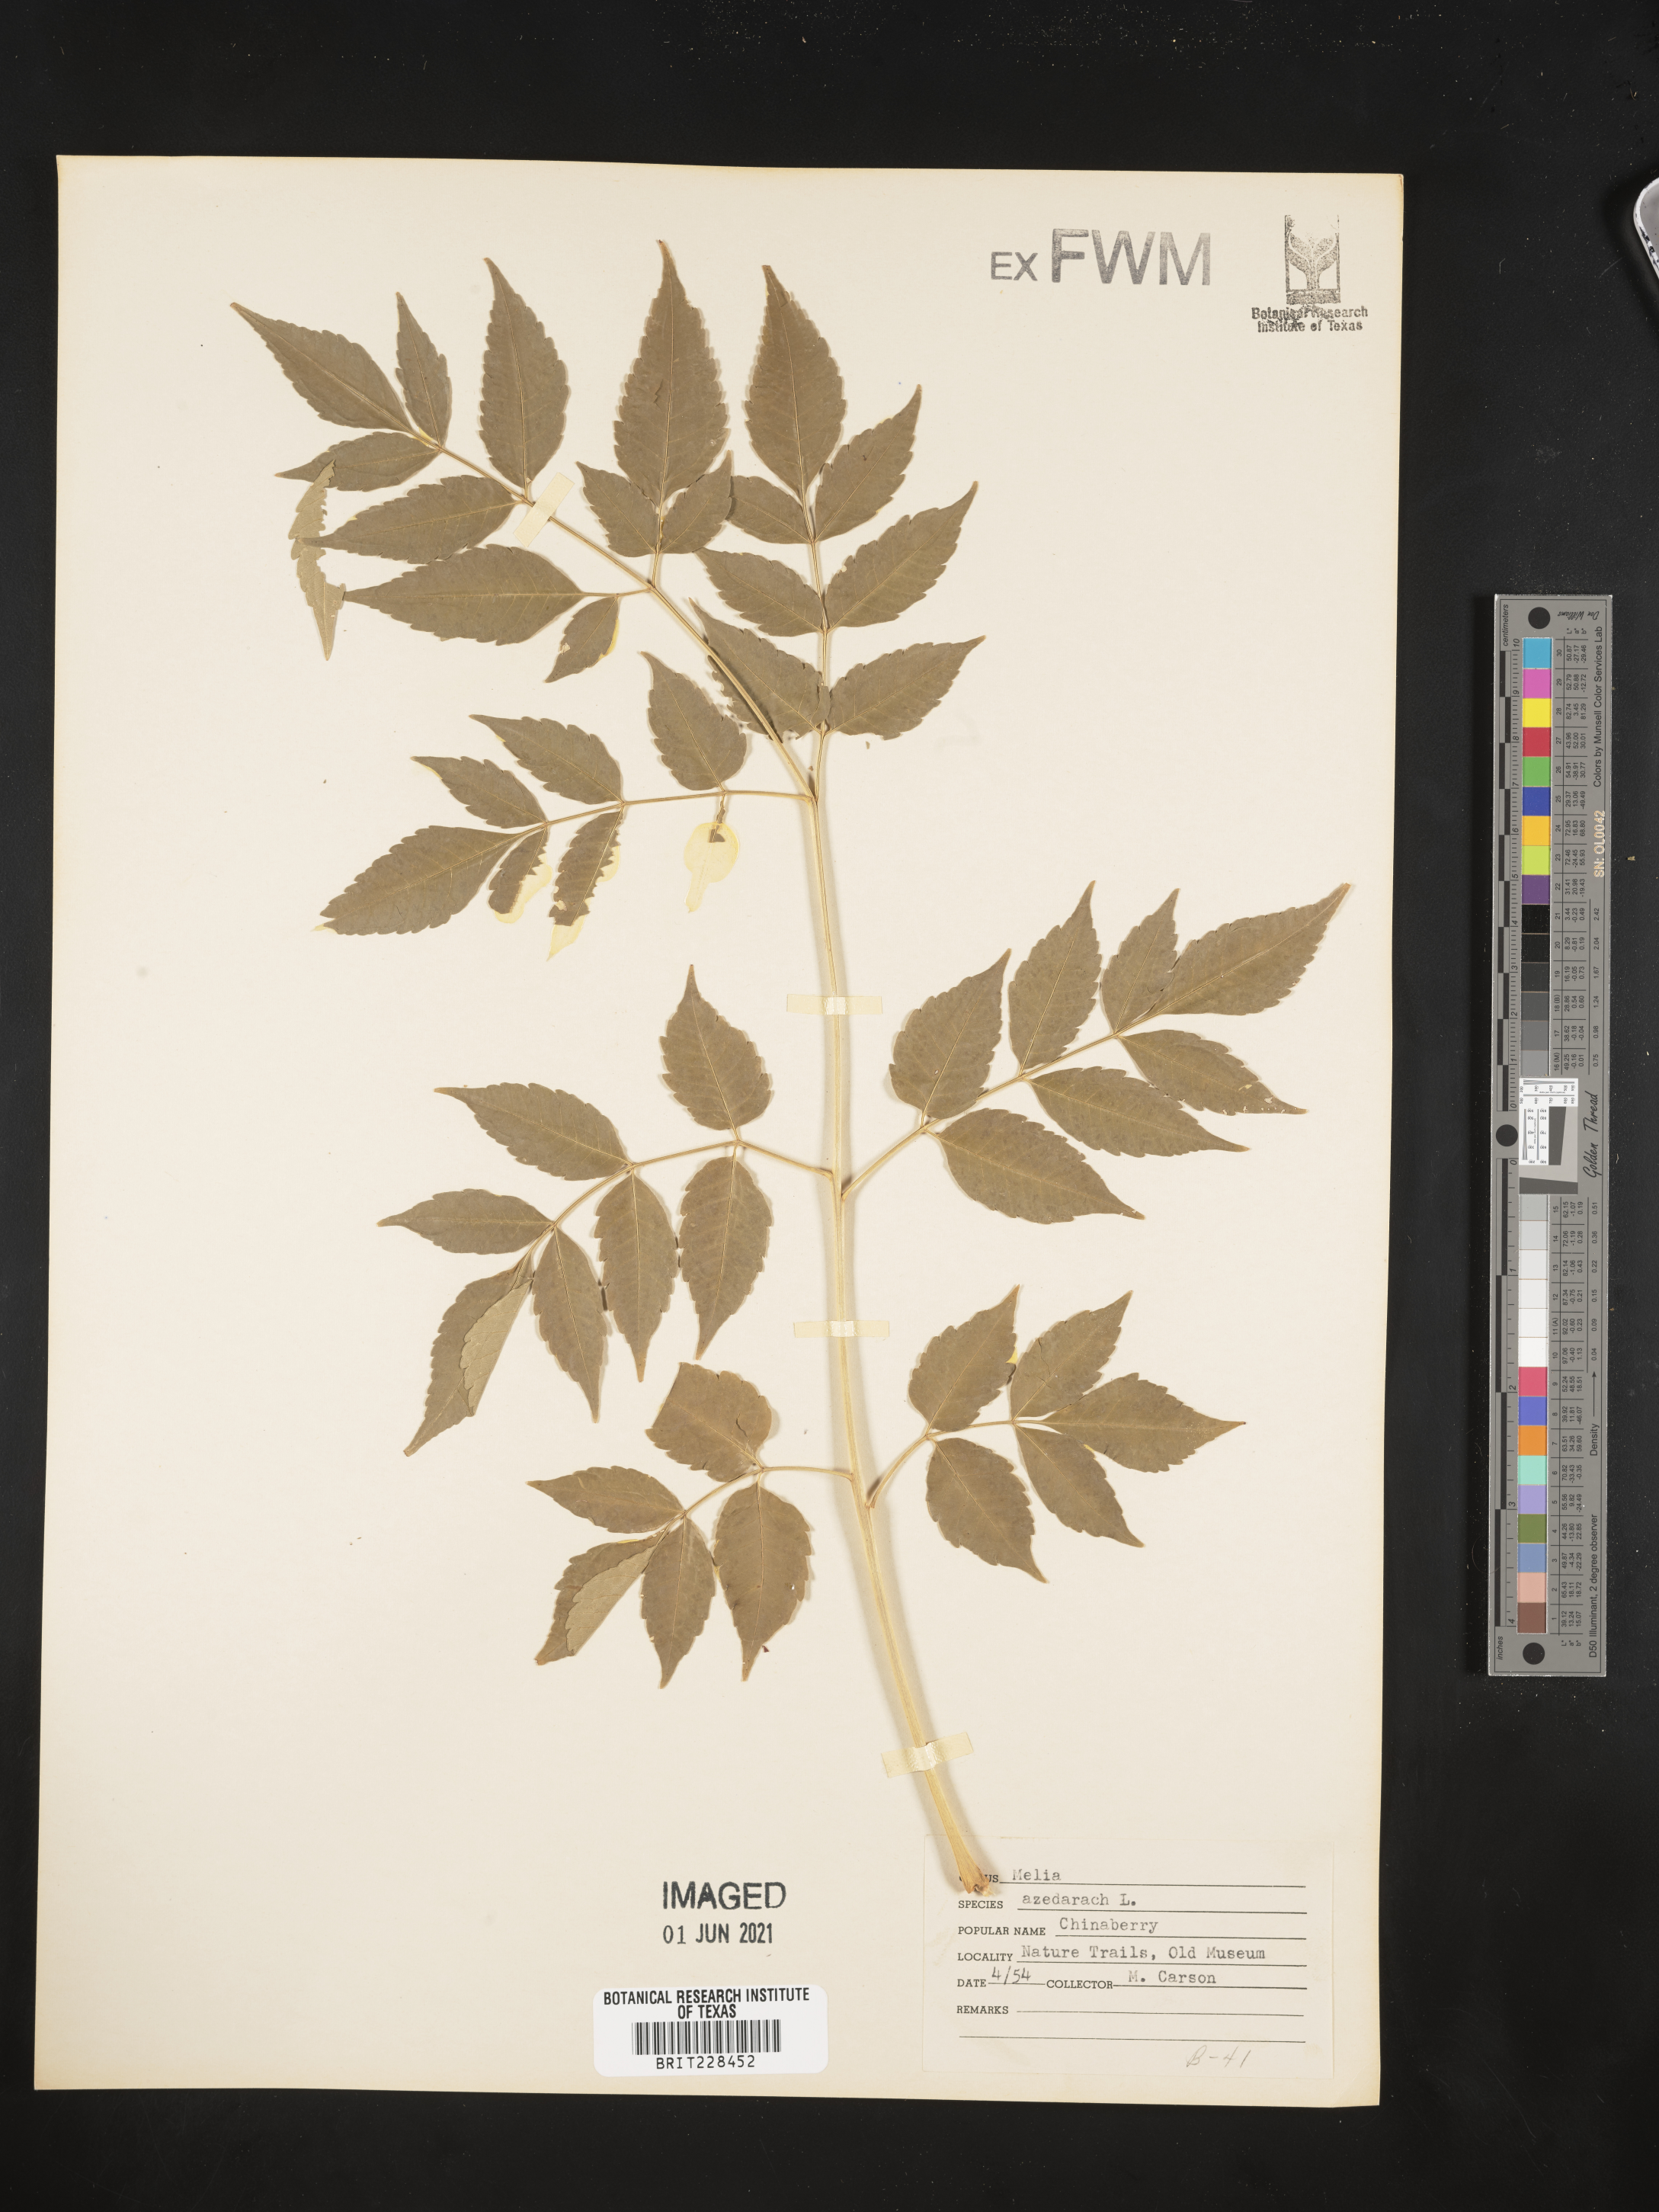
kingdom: Plantae
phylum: Tracheophyta
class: Magnoliopsida
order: Sapindales
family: Meliaceae
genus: Melia
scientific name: Melia azedarach
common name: Chinaberrytree
